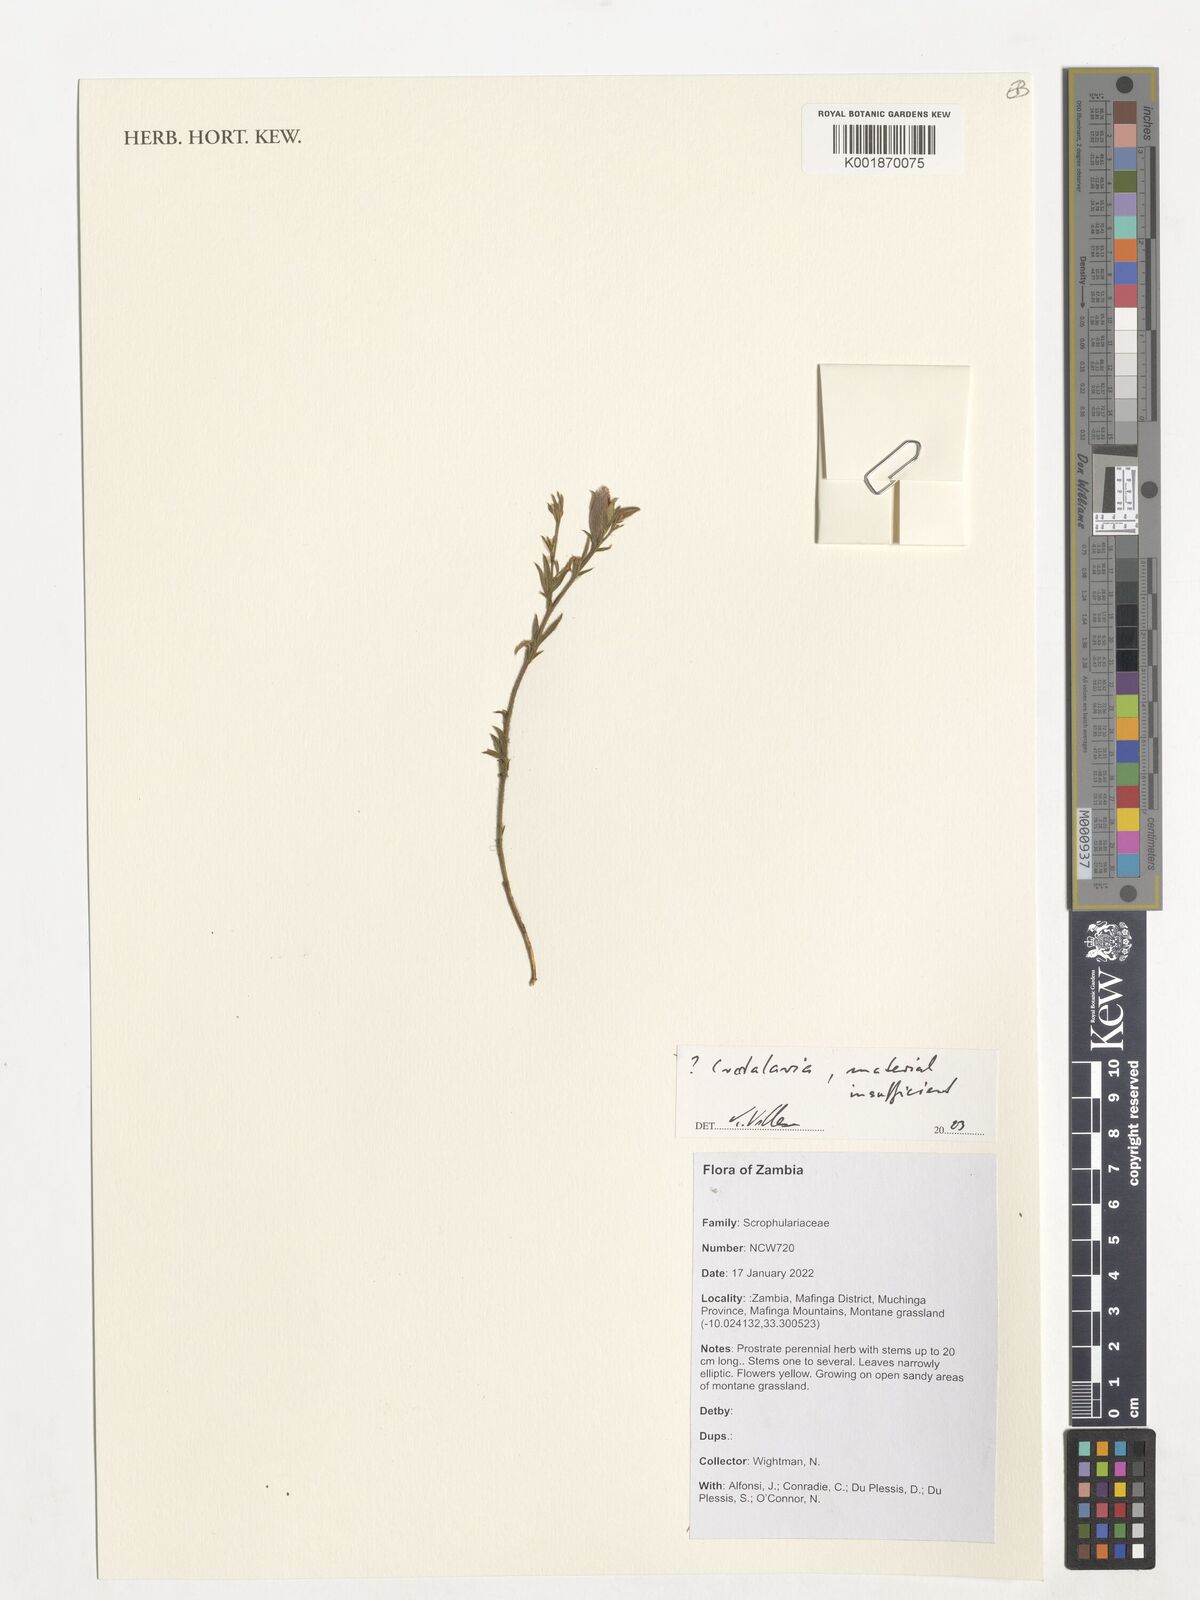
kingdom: Plantae
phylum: Tracheophyta
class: Magnoliopsida
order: Fabales
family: Fabaceae
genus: Crotalaria
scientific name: Crotalaria
